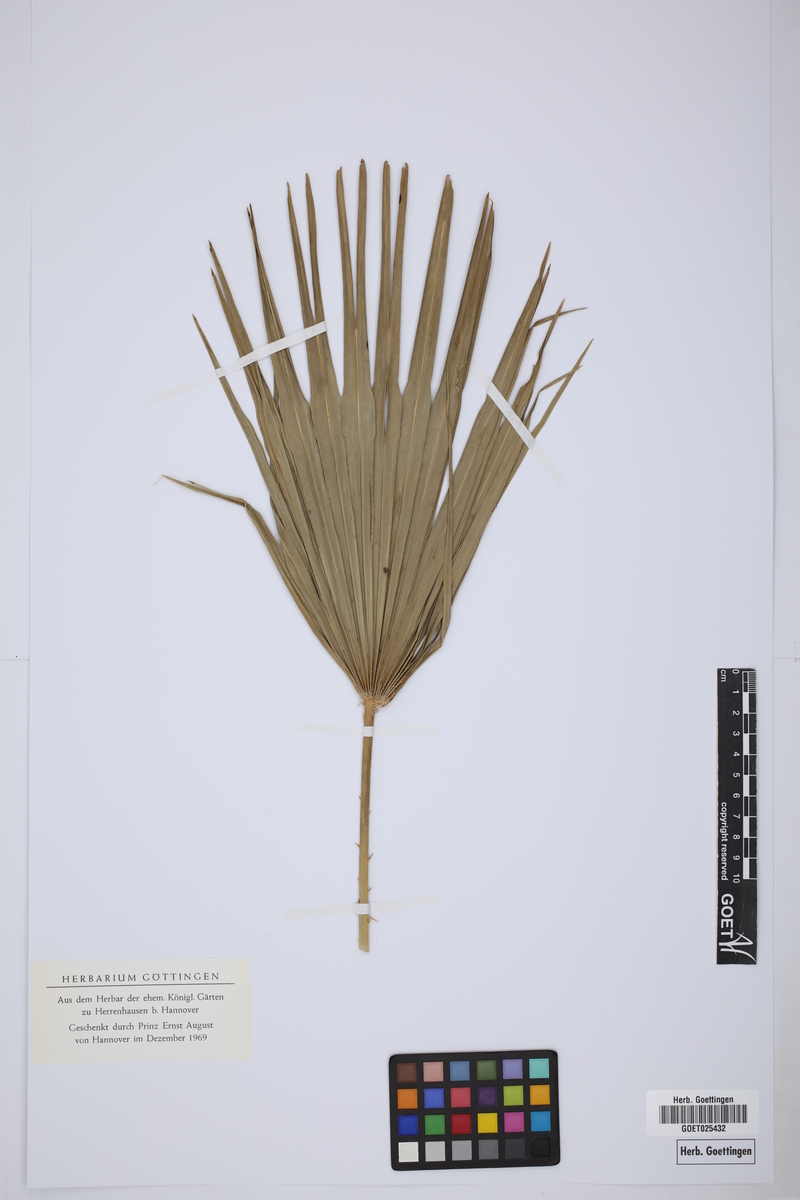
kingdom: Plantae
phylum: Tracheophyta
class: Liliopsida
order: Arecales
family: Arecaceae
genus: Chamaerops
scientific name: Chamaerops humilis
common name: Dwarf fan palm
